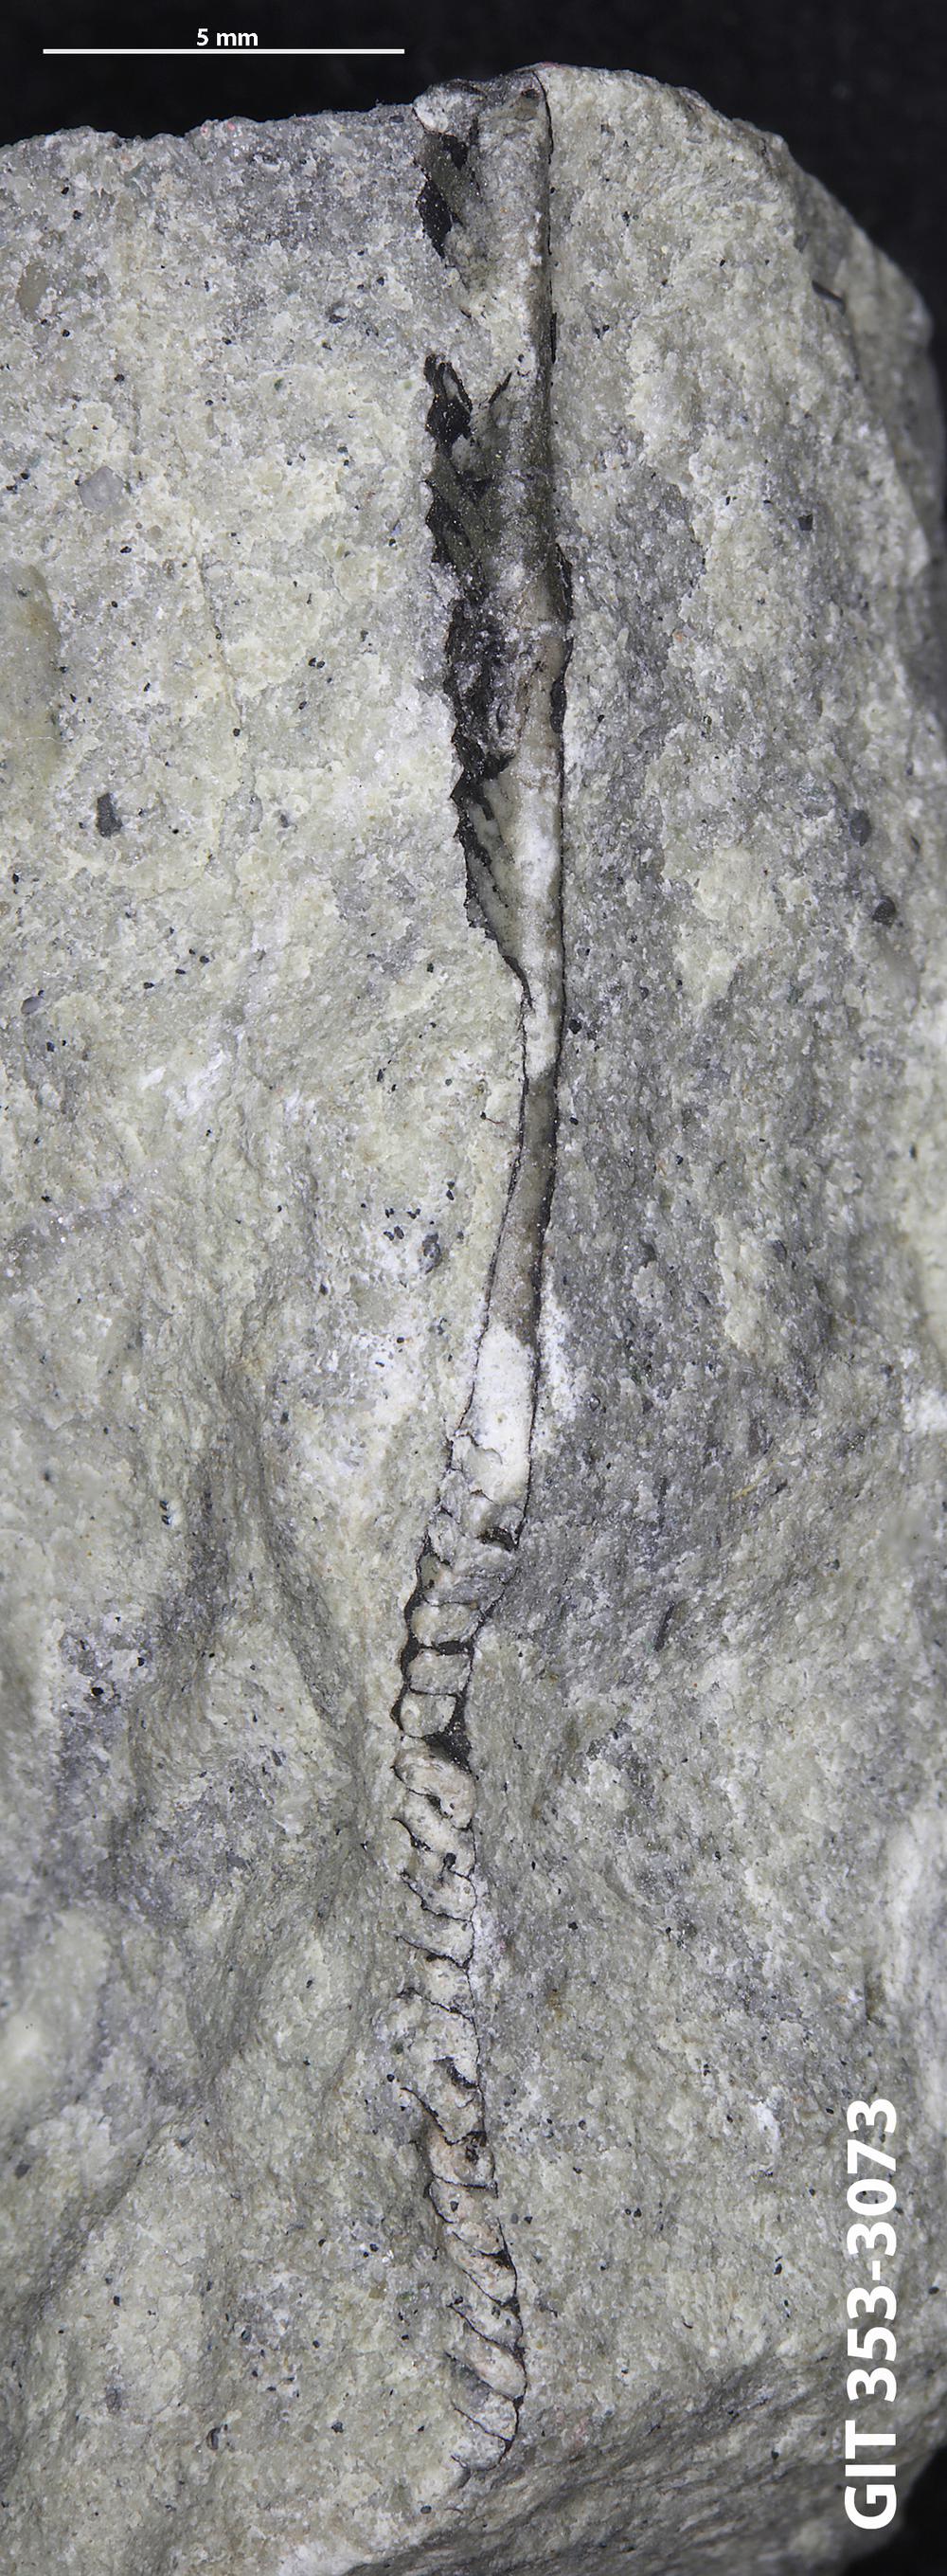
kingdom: Animalia
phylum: Hemichordata
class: Pterobranchia
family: Dichograptidae
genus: Didymograptus
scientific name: Didymograptus
